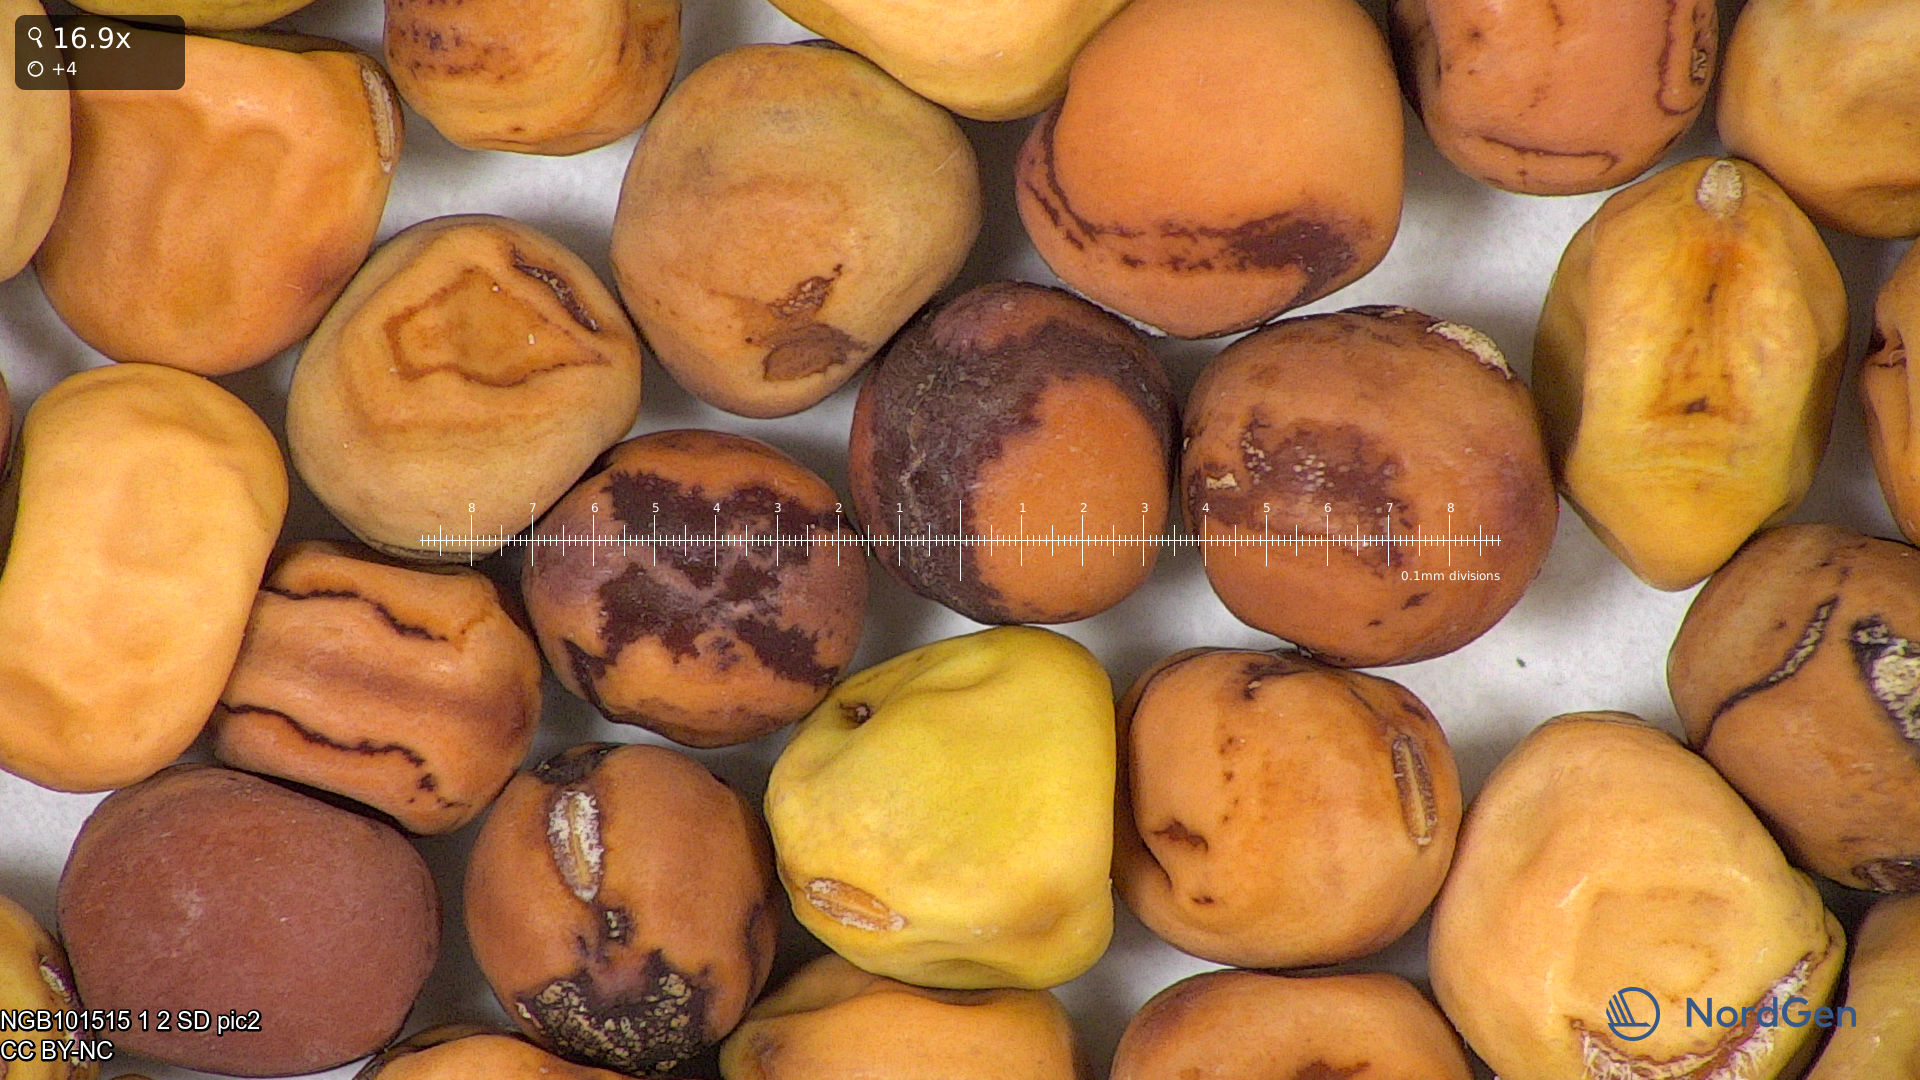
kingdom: Plantae
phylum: Tracheophyta
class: Magnoliopsida
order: Fabales
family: Fabaceae
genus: Lathyrus
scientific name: Lathyrus oleraceus
